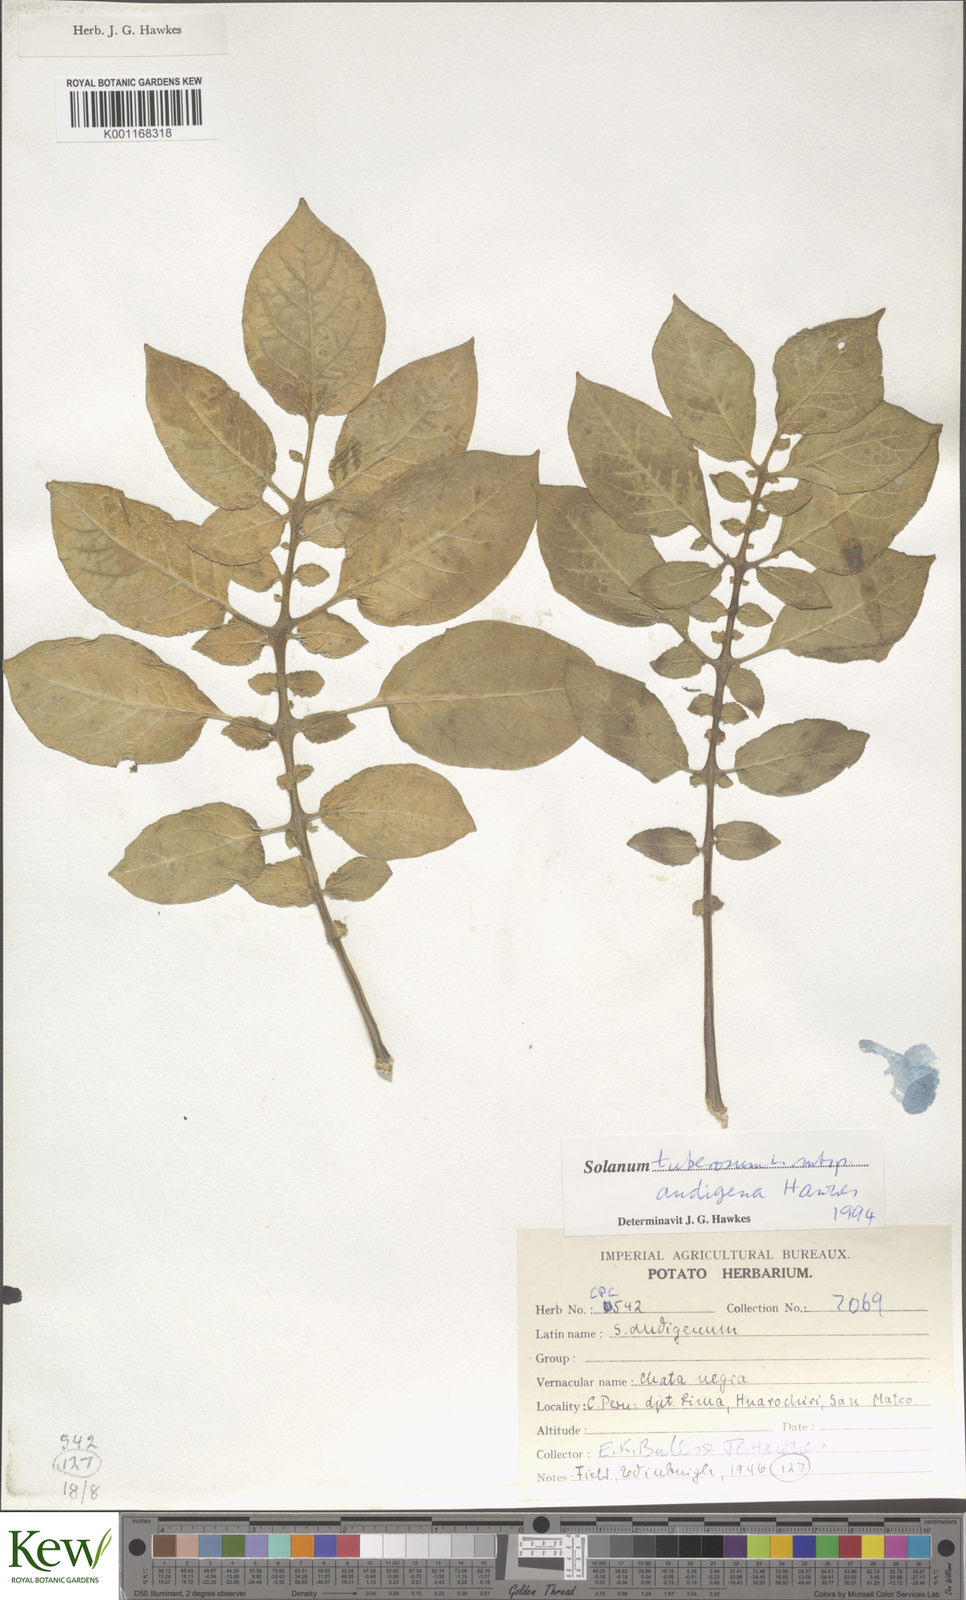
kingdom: Plantae
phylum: Tracheophyta
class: Magnoliopsida
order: Solanales
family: Solanaceae
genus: Solanum
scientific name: Solanum tuberosum
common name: Potato
